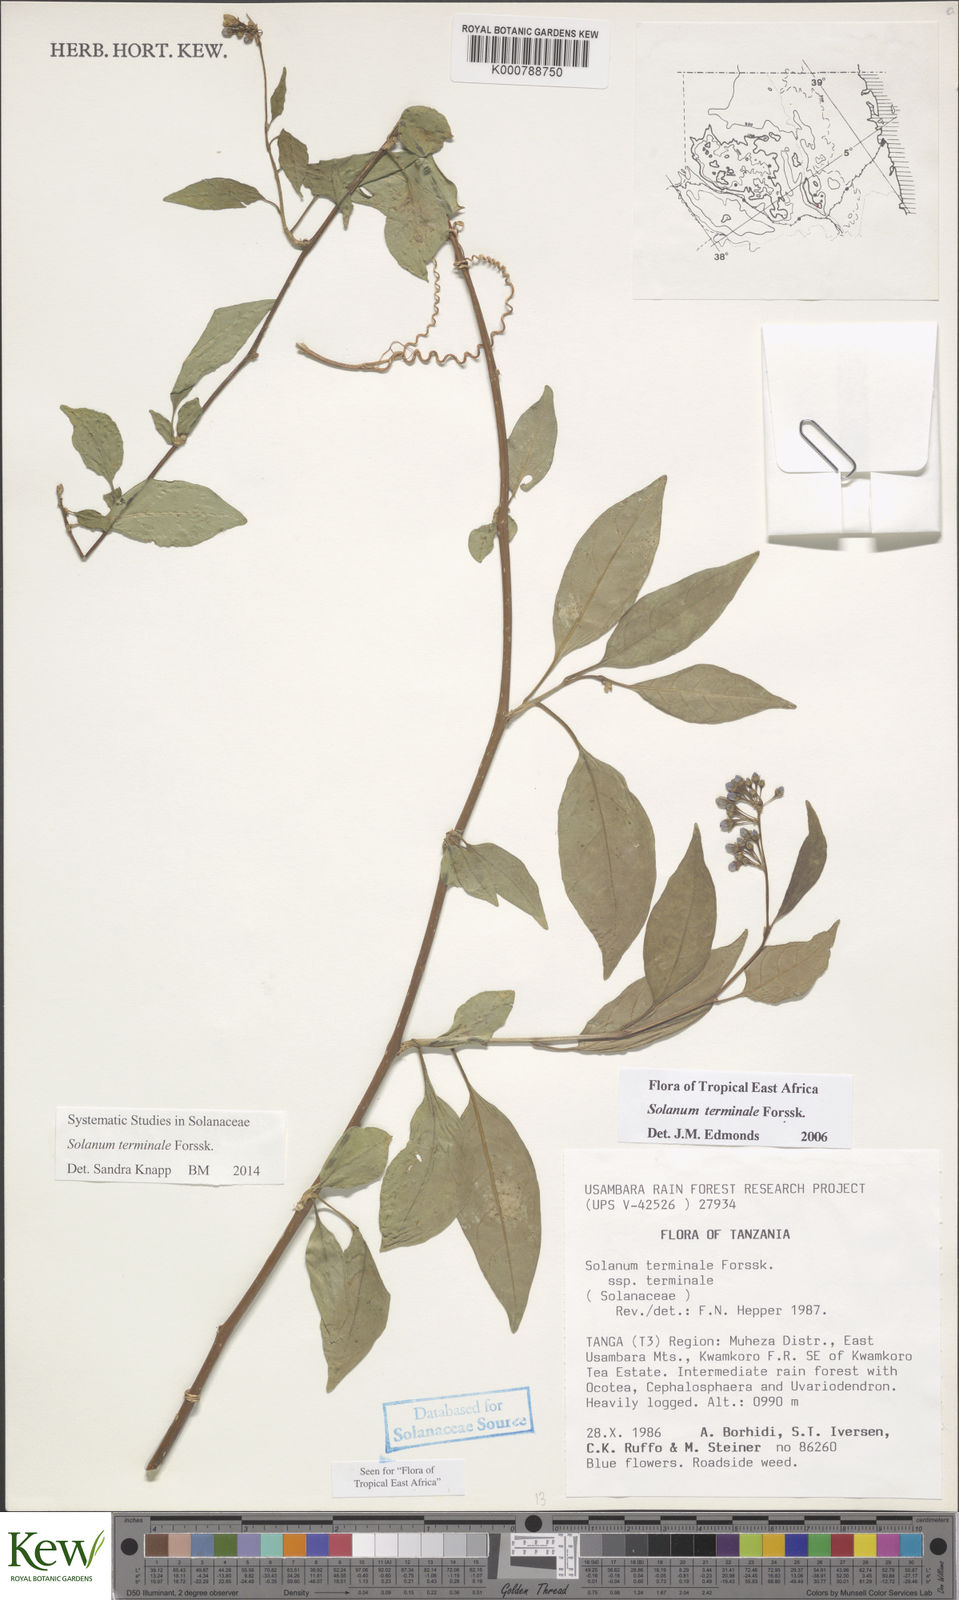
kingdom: Plantae
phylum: Tracheophyta
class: Magnoliopsida
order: Solanales
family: Solanaceae
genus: Solanum
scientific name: Solanum terminale
